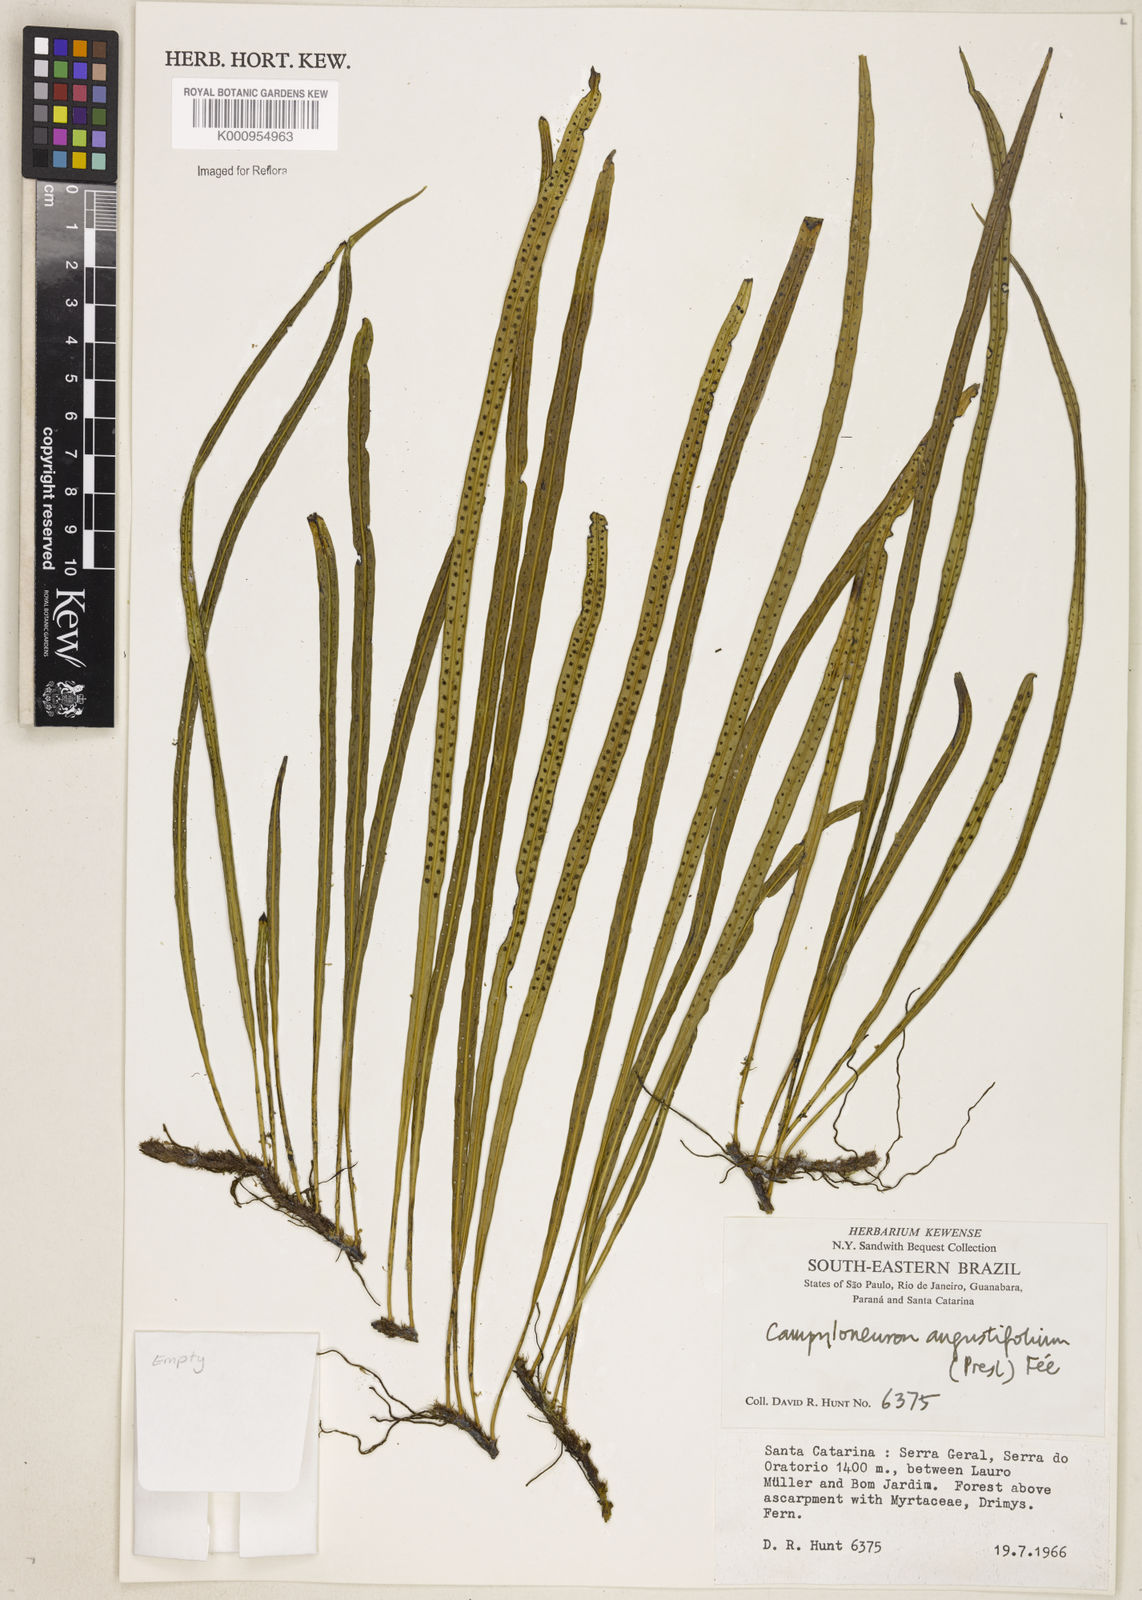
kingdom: Plantae
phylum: Tracheophyta
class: Polypodiopsida
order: Polypodiales
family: Polypodiaceae
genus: Campyloneurum
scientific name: Campyloneurum
